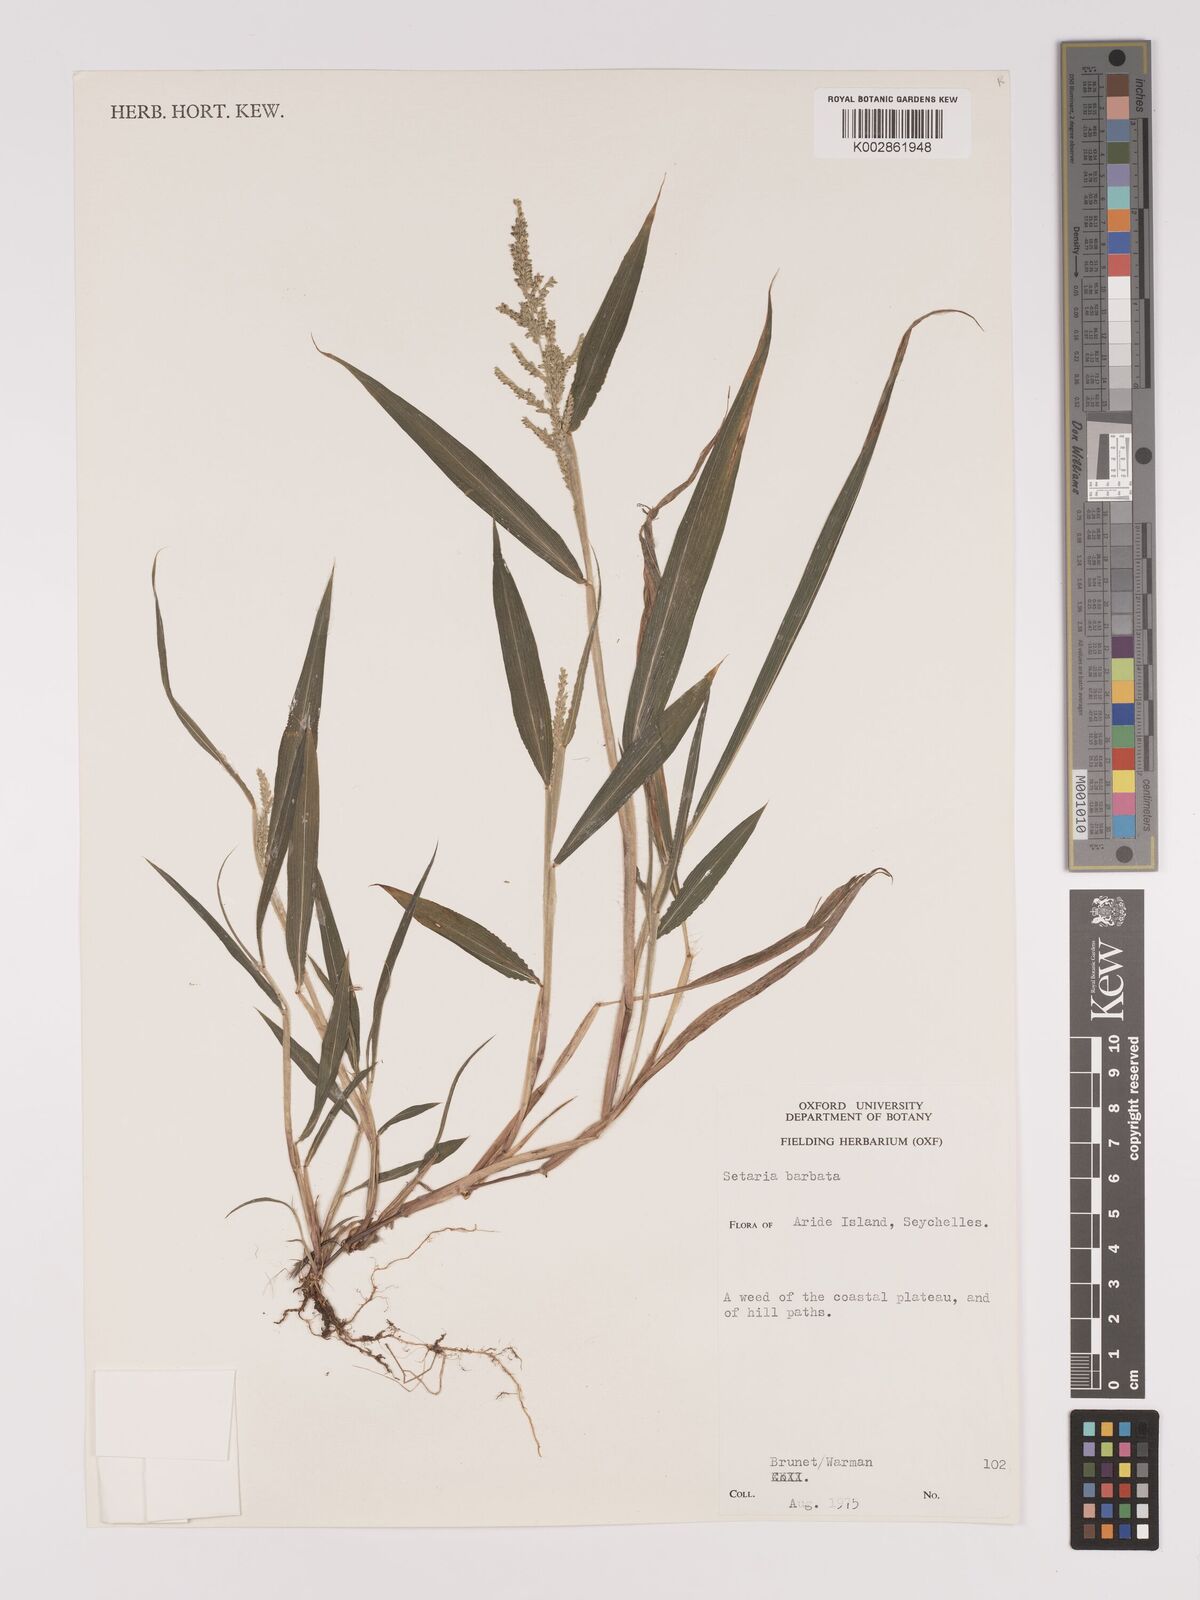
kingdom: Plantae
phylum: Tracheophyta
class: Liliopsida
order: Poales
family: Poaceae
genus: Setaria
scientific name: Setaria barbata
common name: East indian bristlegrass
